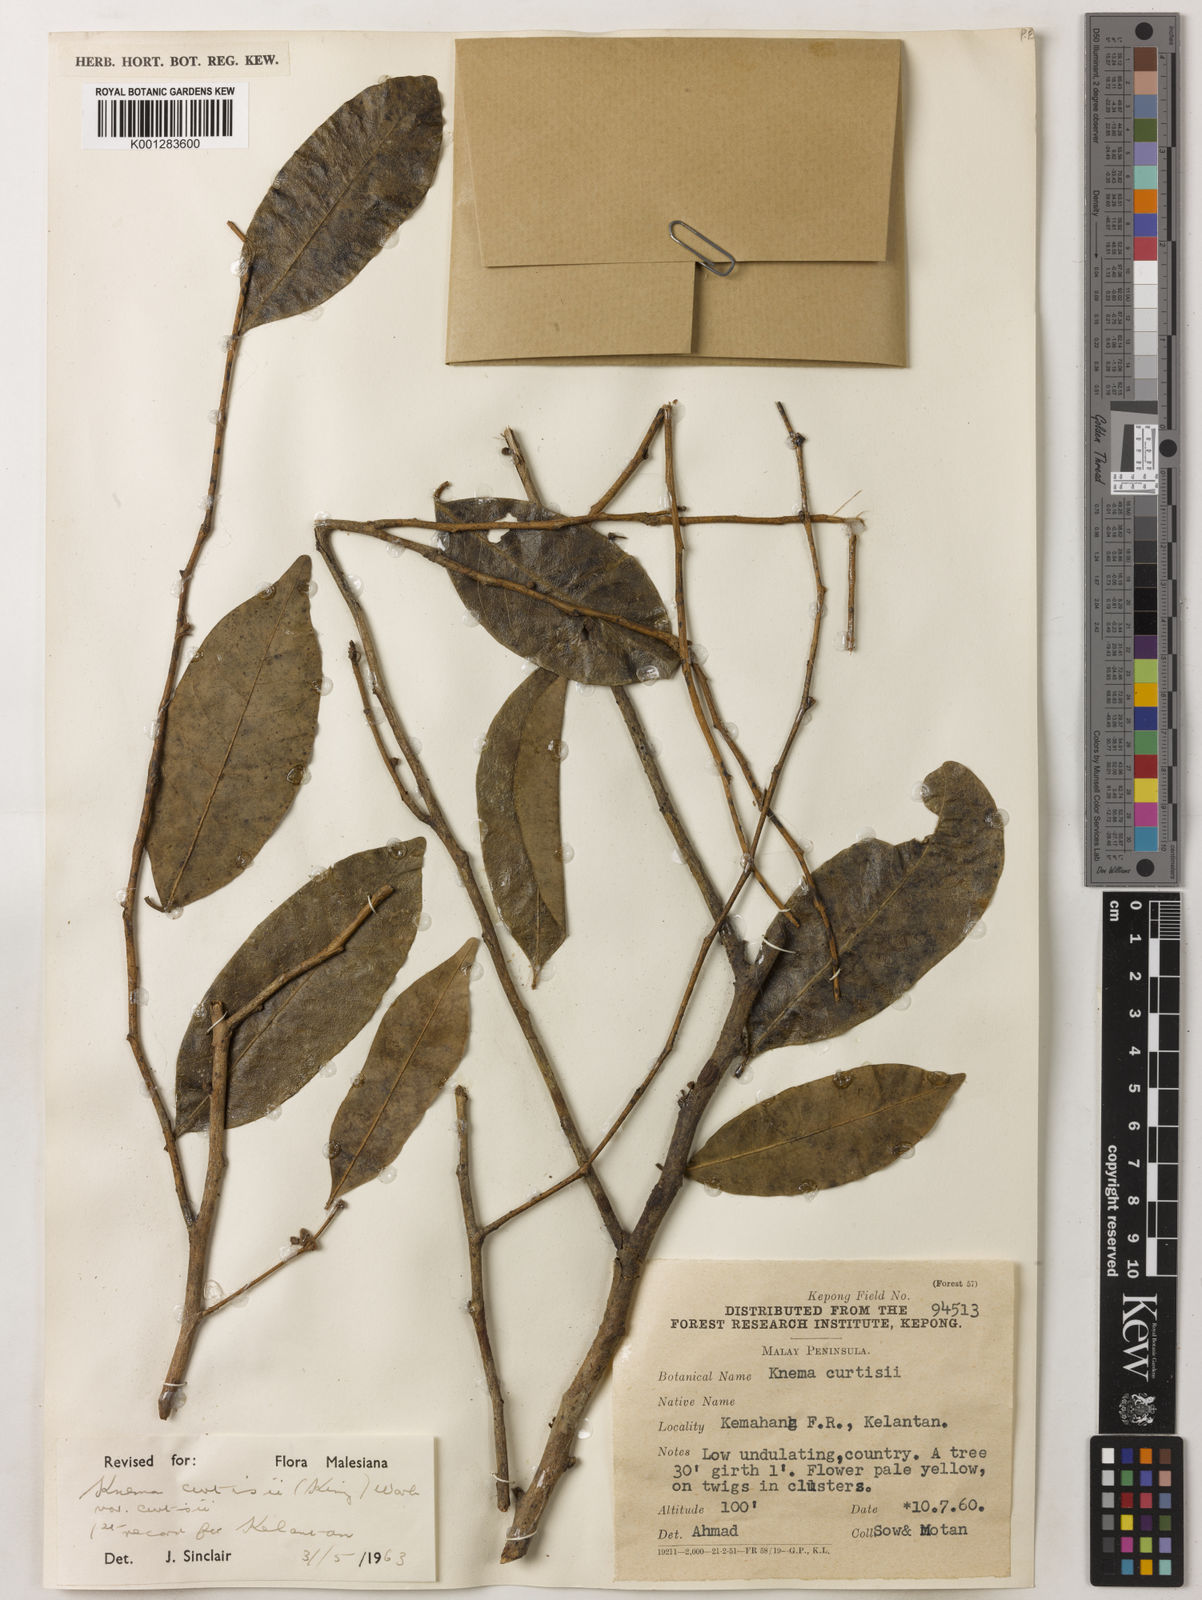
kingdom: Plantae
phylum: Tracheophyta
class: Magnoliopsida
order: Magnoliales
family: Myristicaceae
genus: Knema
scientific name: Knema curtisii
